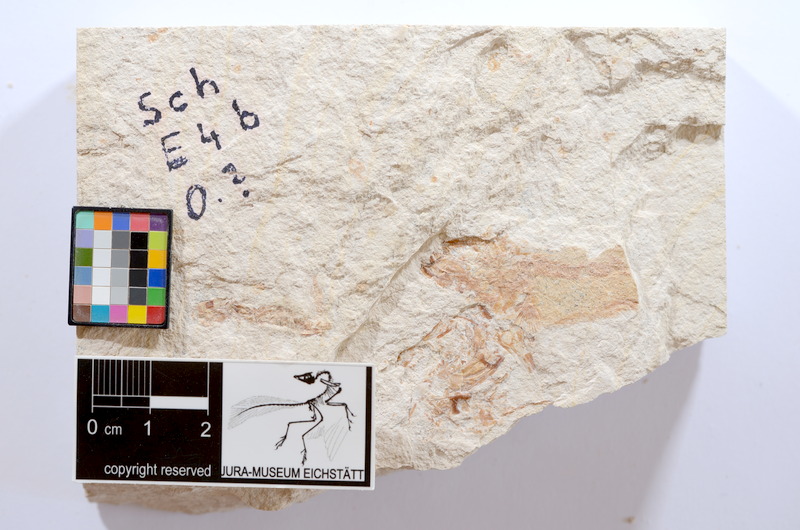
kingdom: Animalia
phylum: Chordata
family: Ascalaboidae
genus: Tharsis
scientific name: Tharsis dubius
